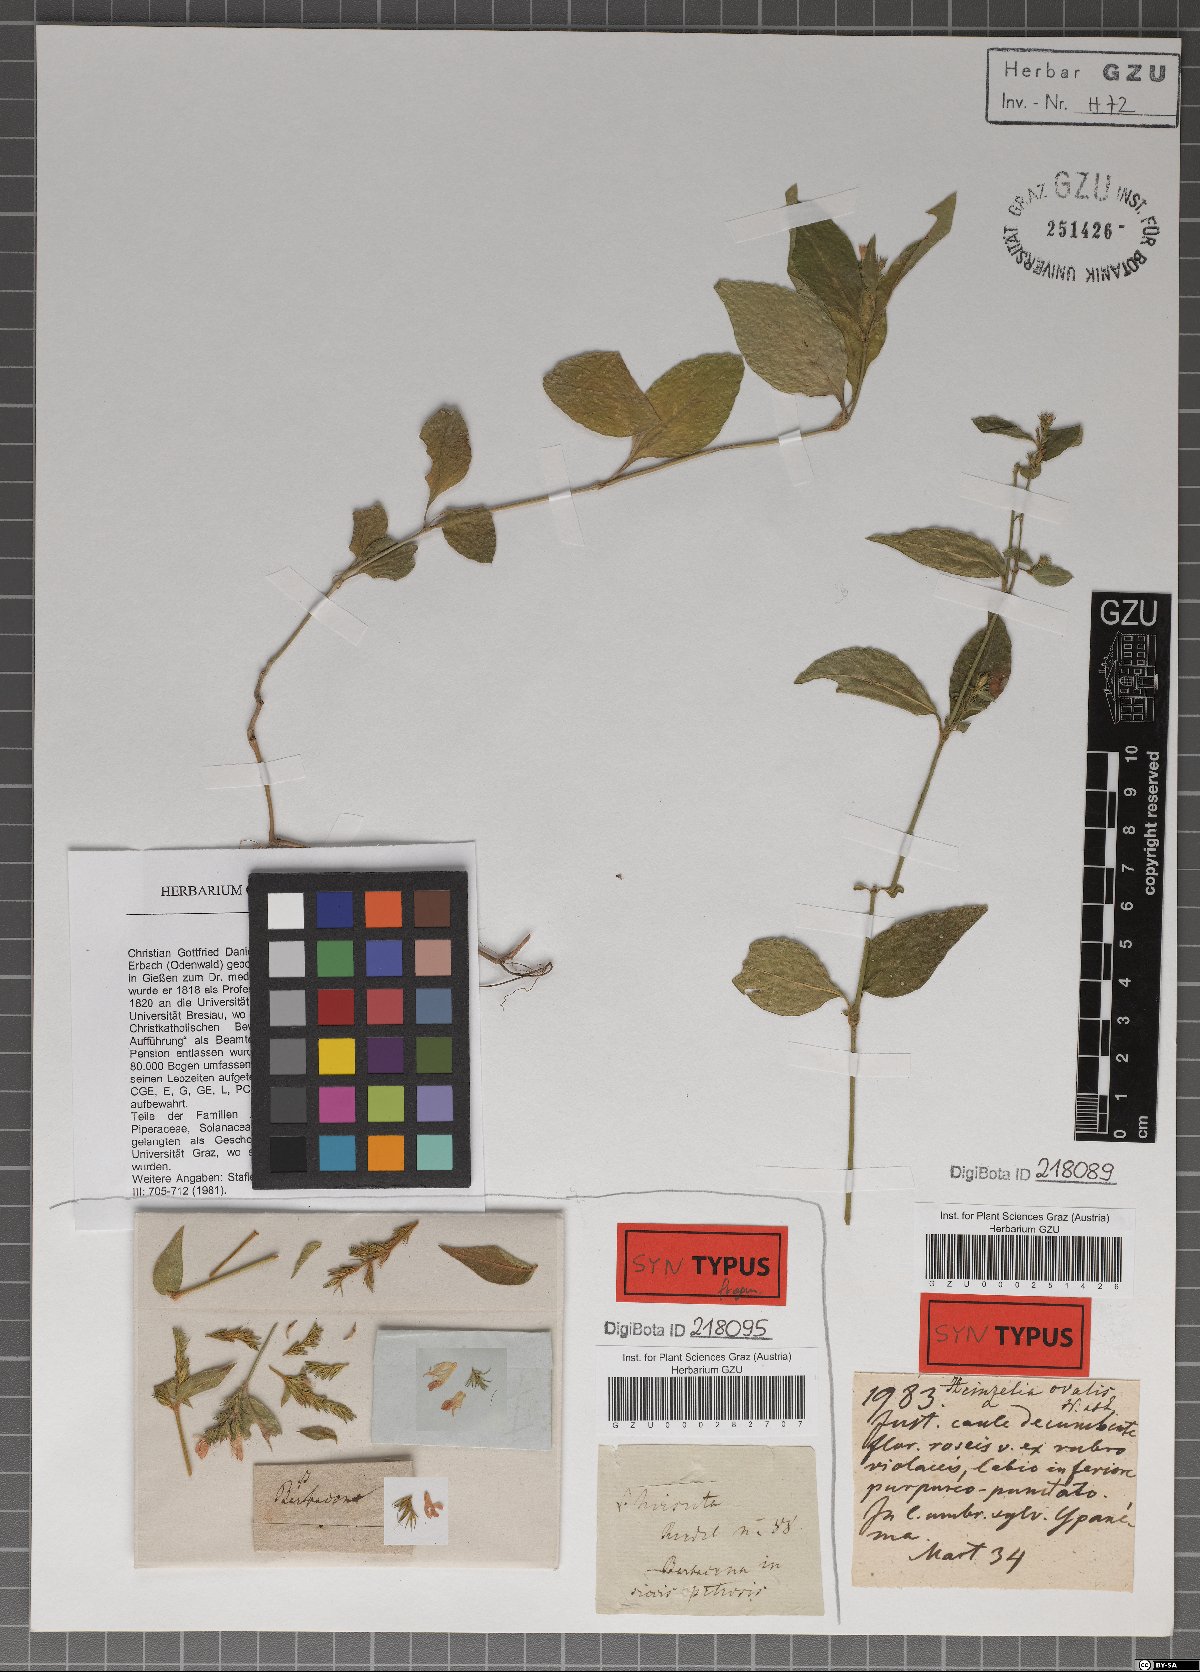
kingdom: Plantae
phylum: Tracheophyta
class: Magnoliopsida
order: Lamiales
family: Acanthaceae
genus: Justicia
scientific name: Justicia lythroides
